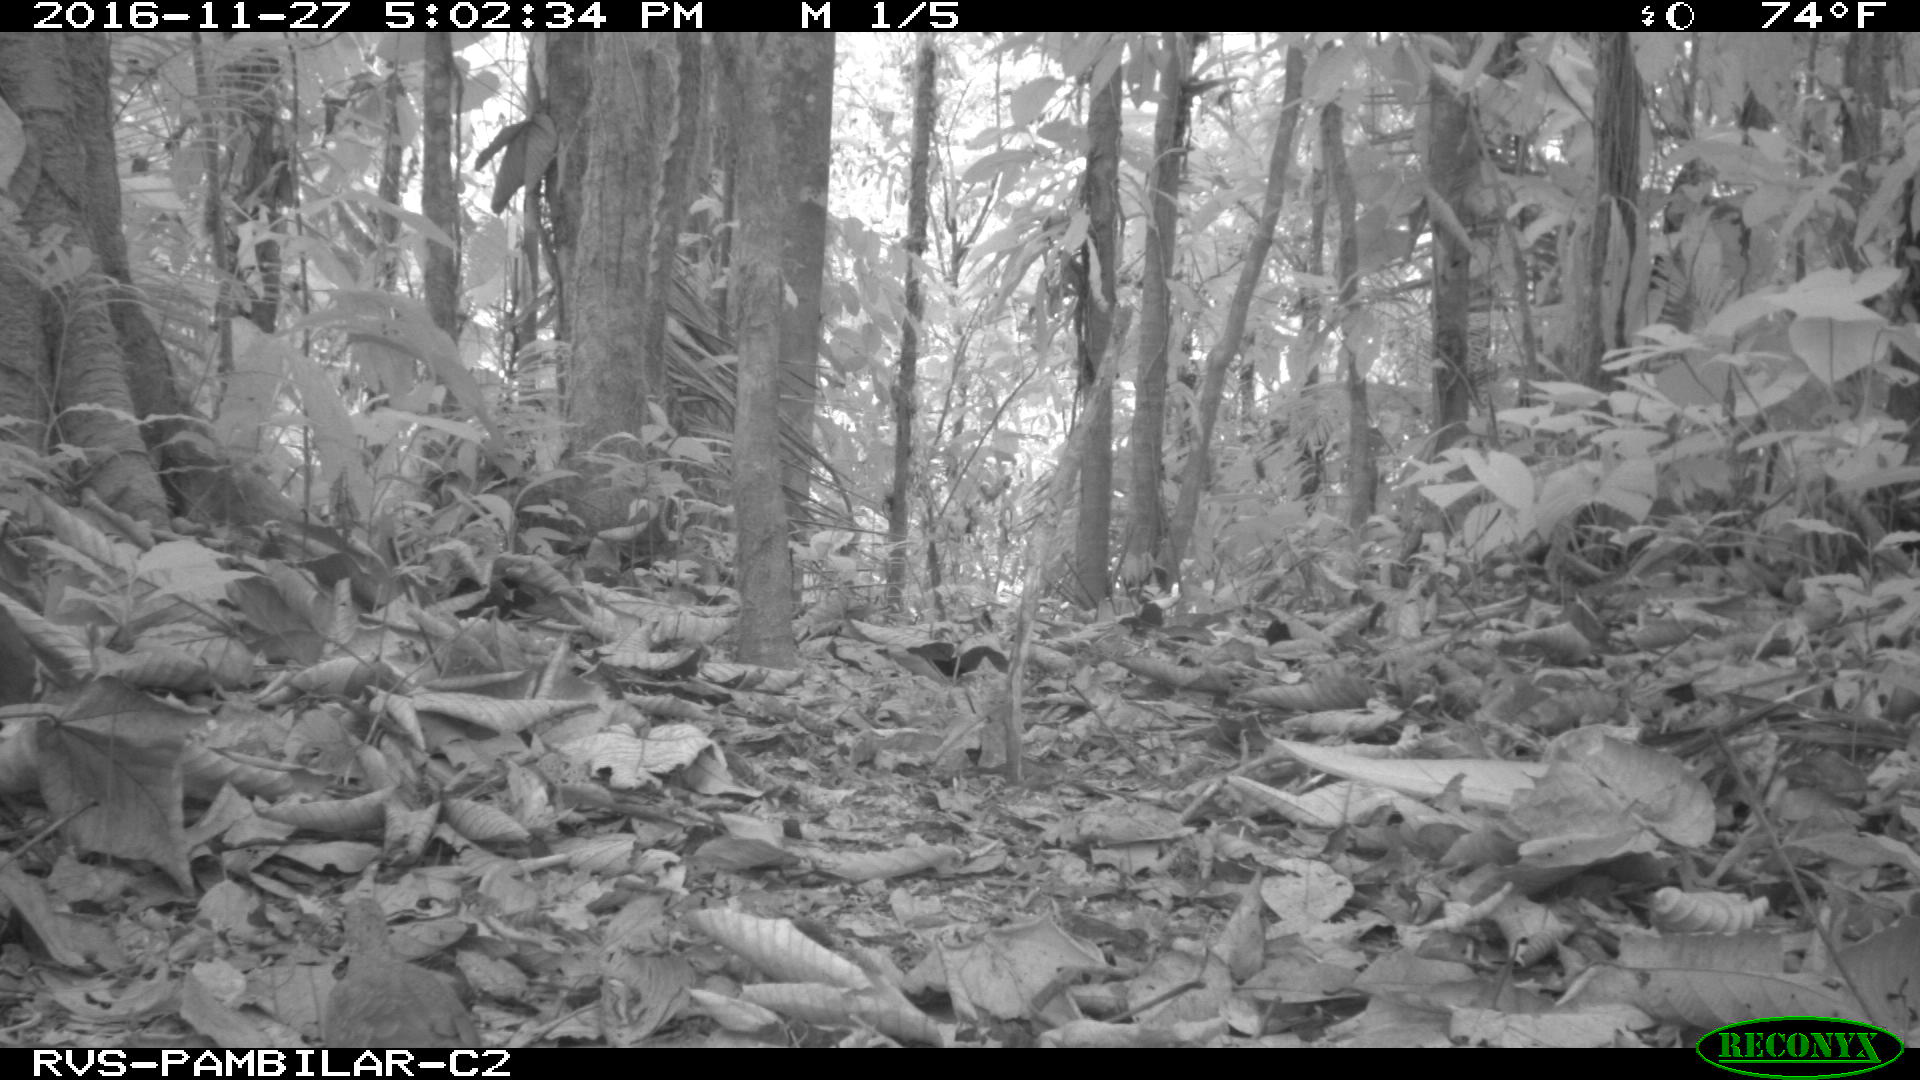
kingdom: Animalia
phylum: Chordata
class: Aves
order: Columbiformes
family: Columbidae
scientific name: Columbidae
